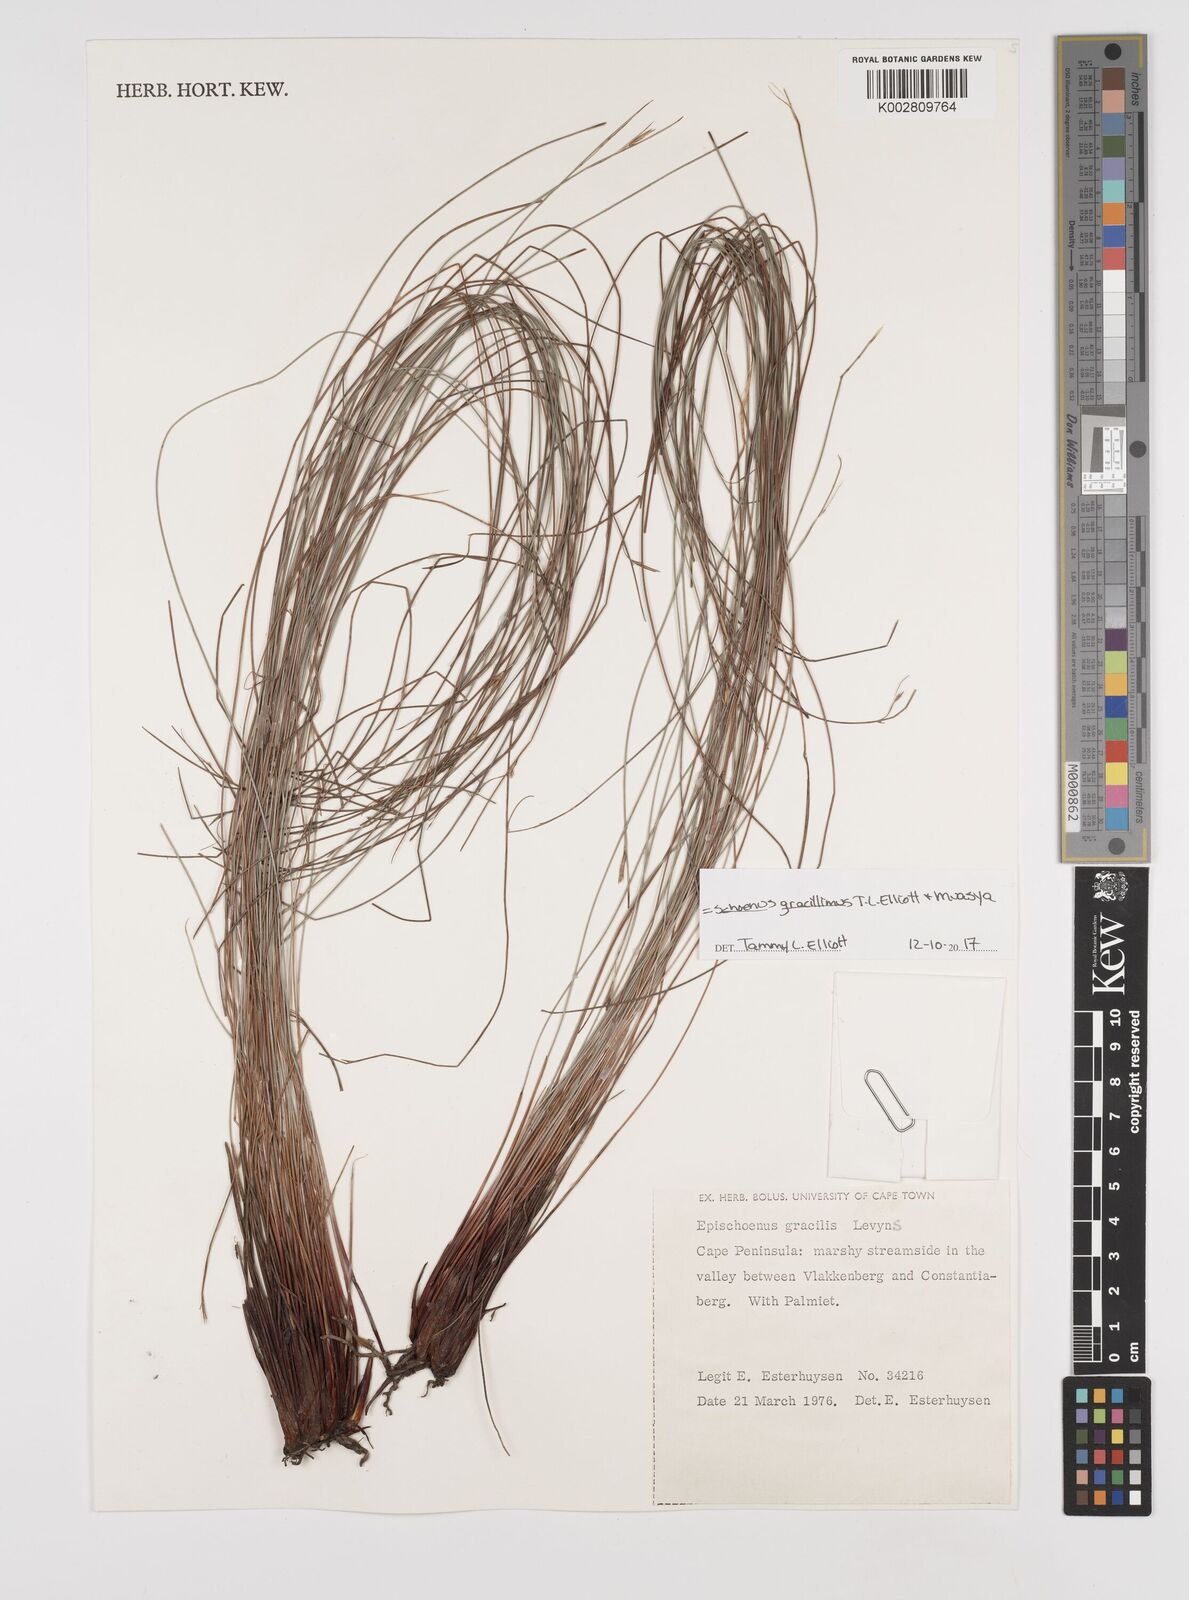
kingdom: Plantae
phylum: Tracheophyta
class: Liliopsida
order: Poales
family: Cyperaceae
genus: Rhynchospora
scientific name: Rhynchospora racemosa
